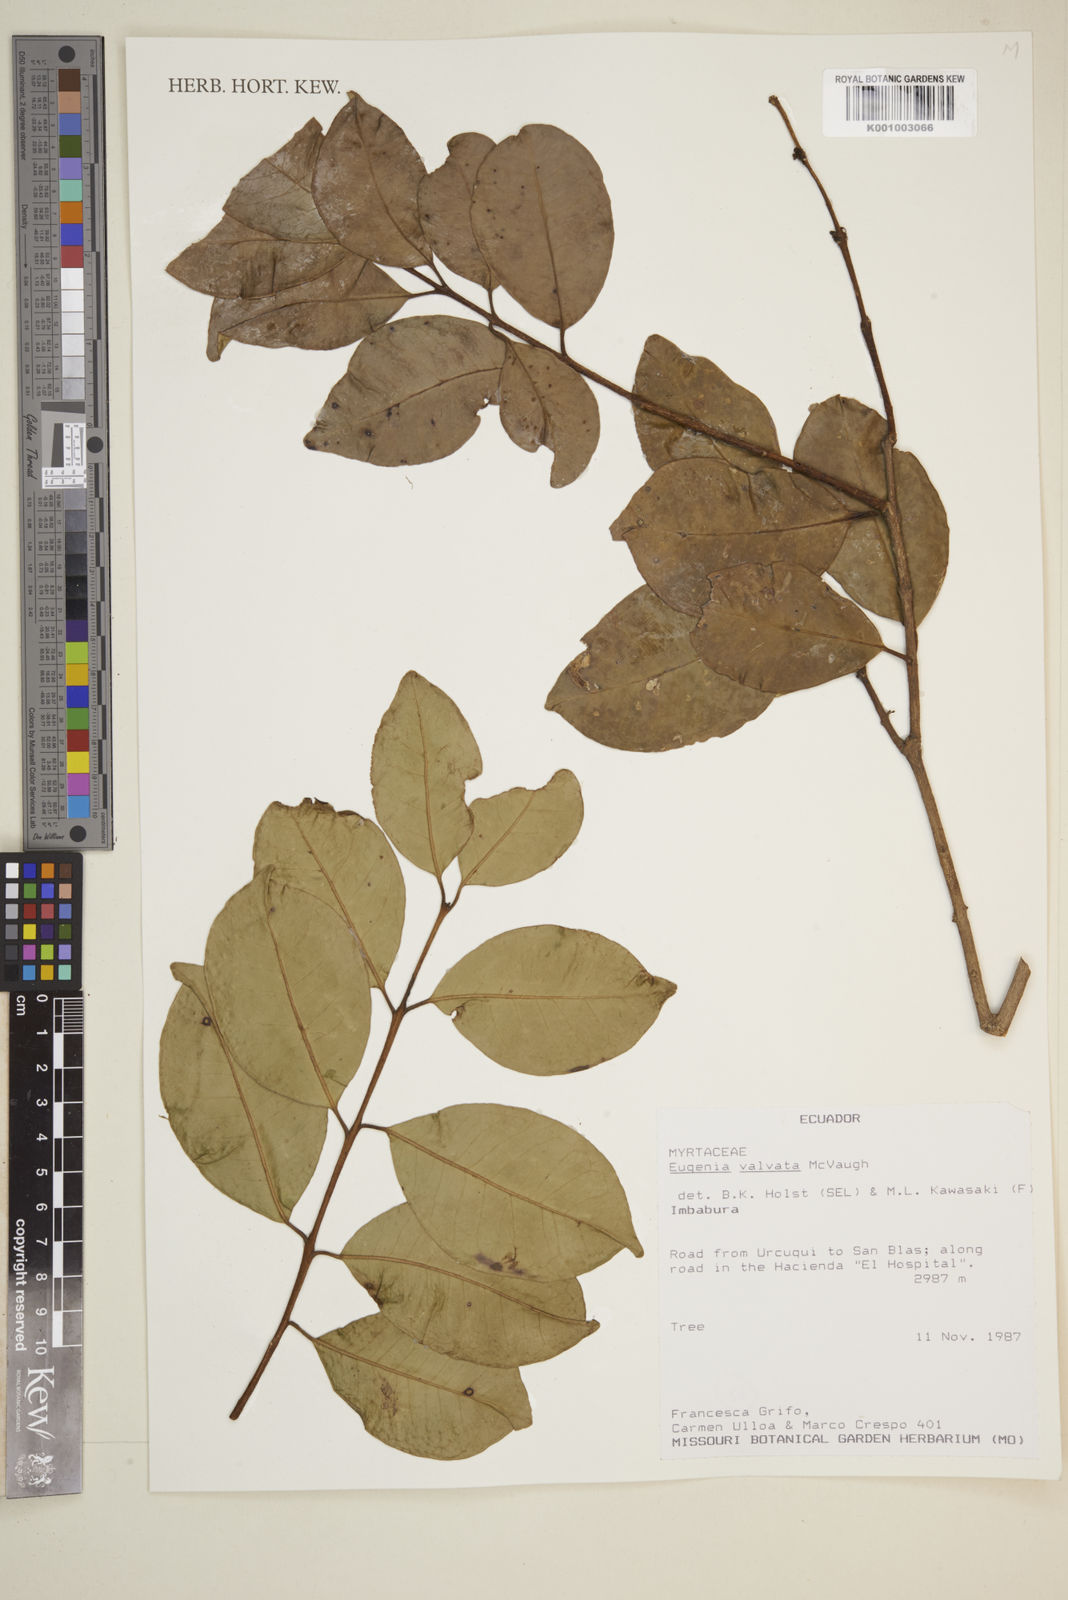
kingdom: Plantae
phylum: Tracheophyta
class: Magnoliopsida
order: Myrtales
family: Myrtaceae
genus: Eugenia
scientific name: Eugenia valvata
